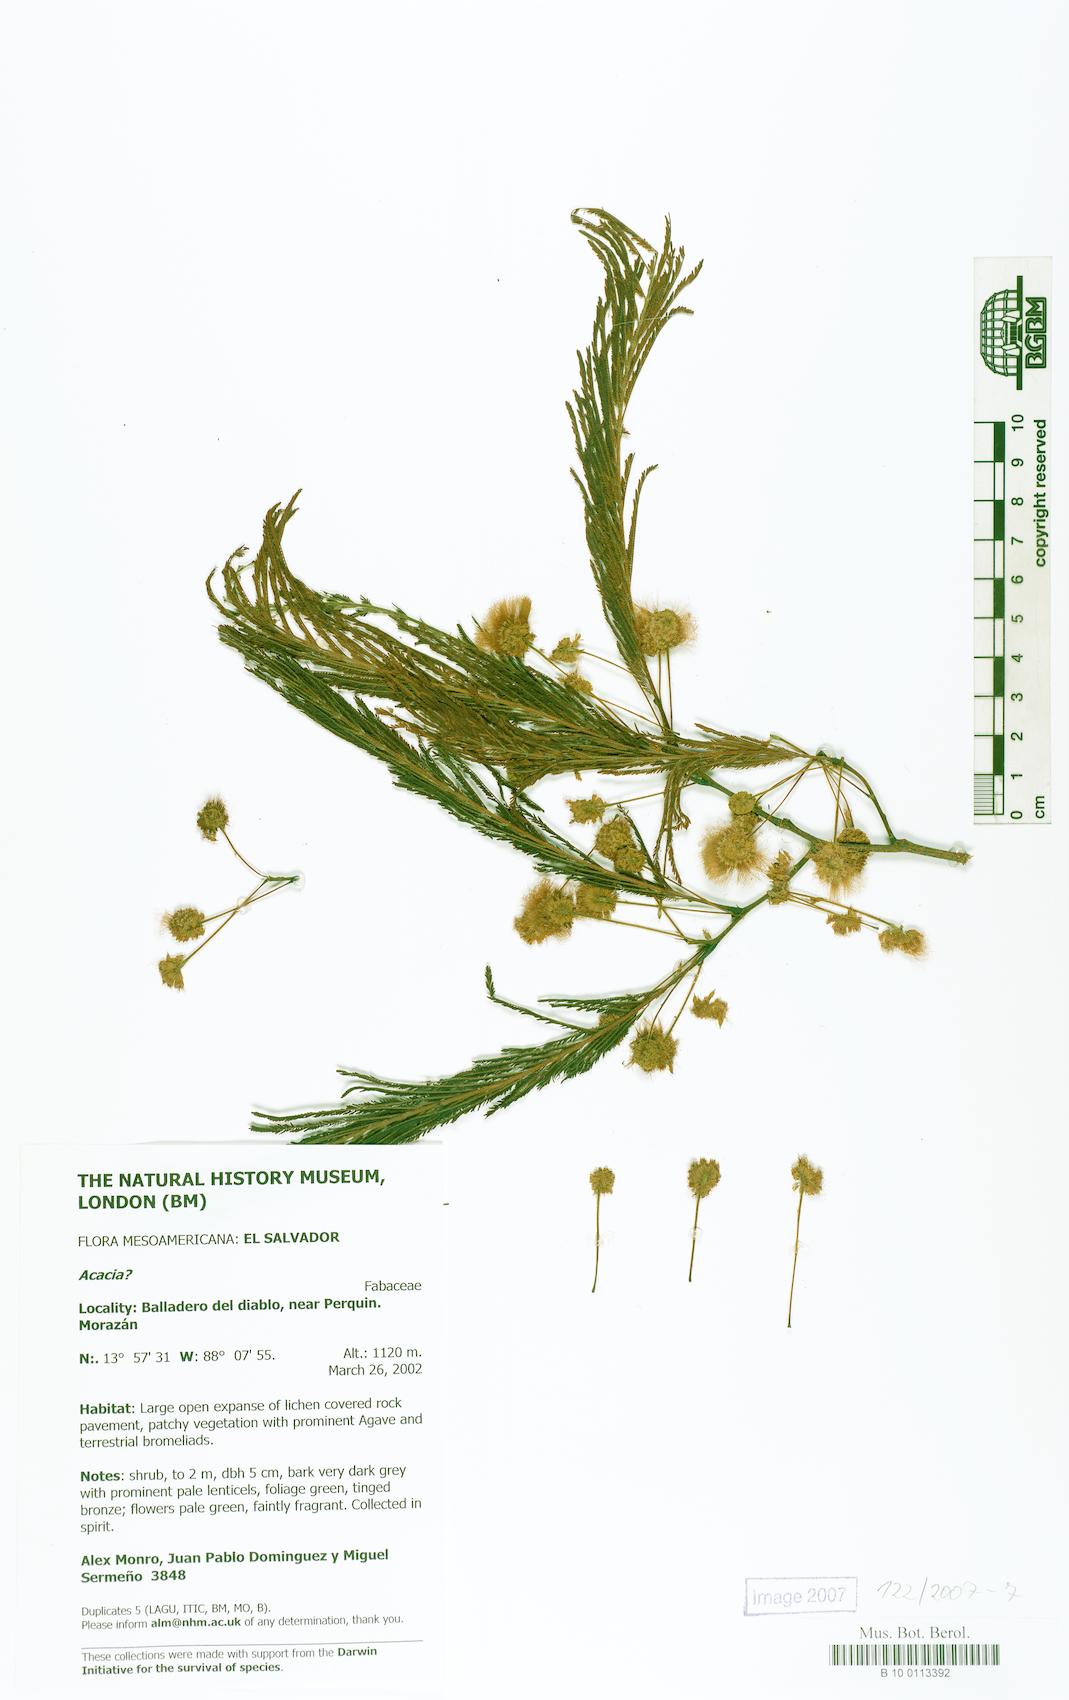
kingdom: Plantae
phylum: Tracheophyta
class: Magnoliopsida
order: Fabales
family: Fabaceae
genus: Lysiloma
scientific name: Lysiloma divaricatum
